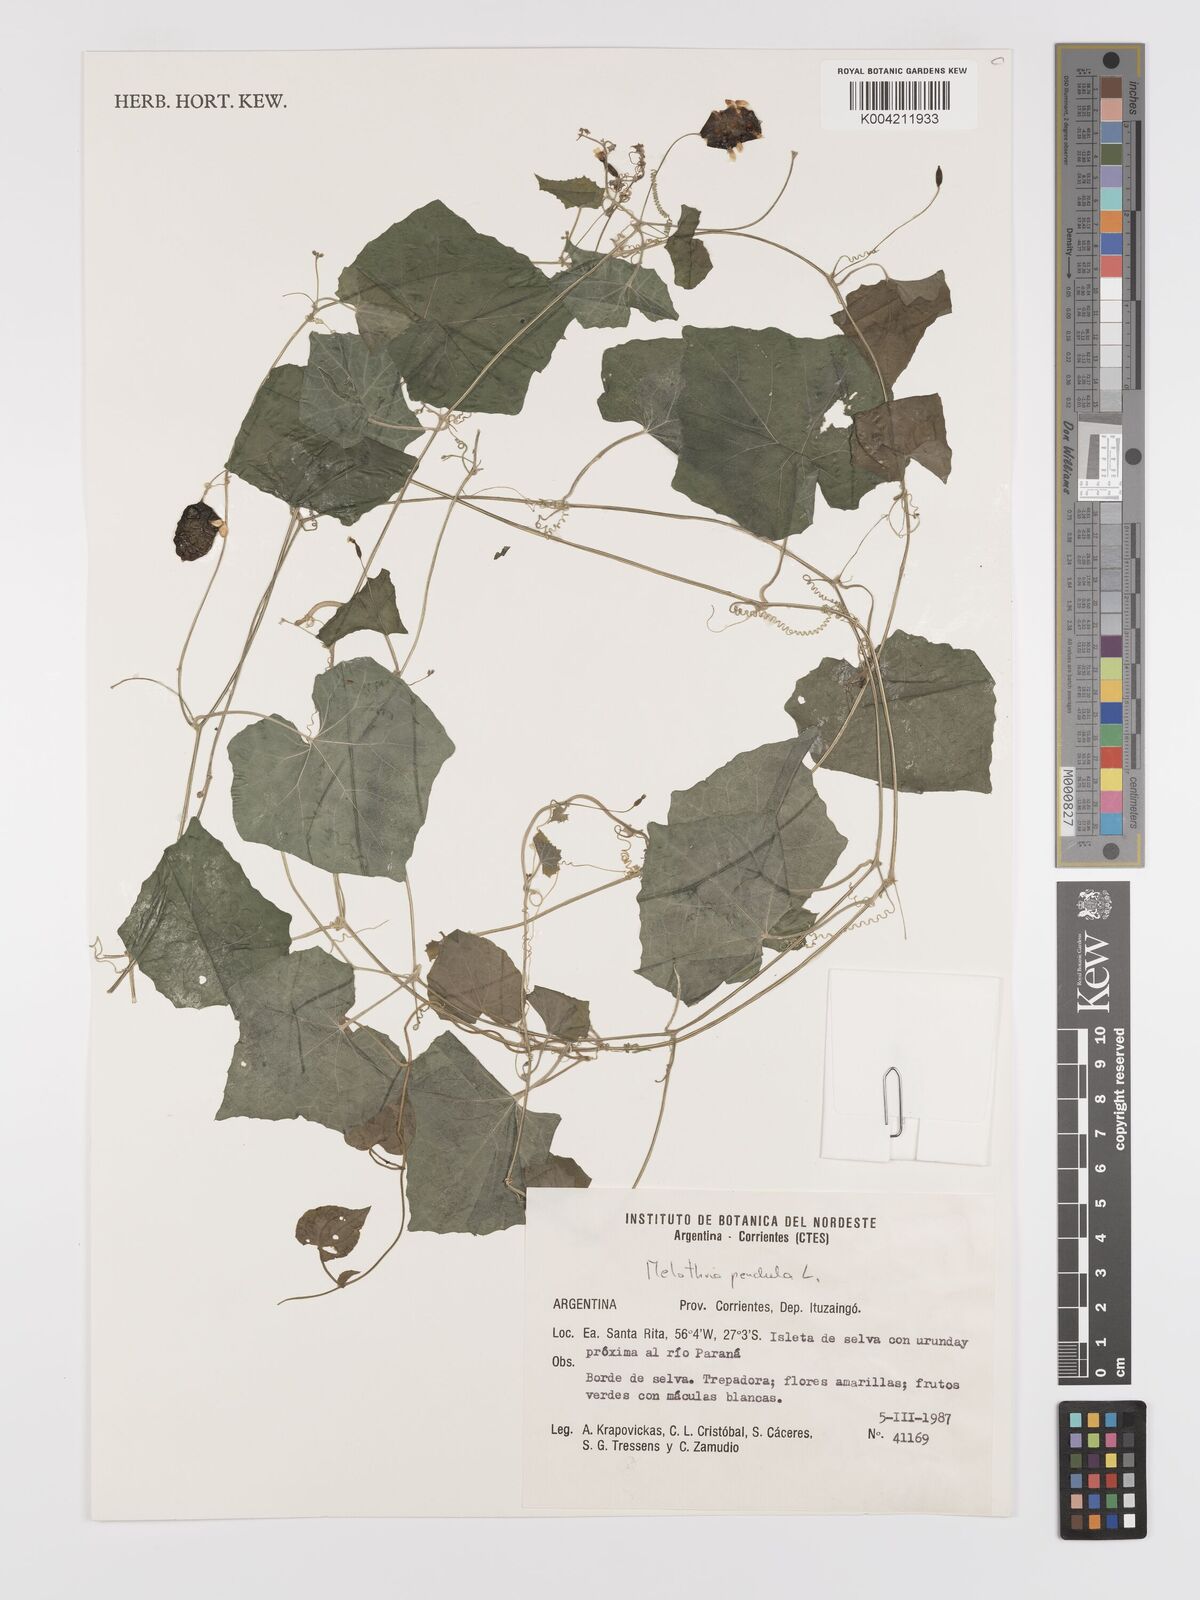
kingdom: Plantae
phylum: Tracheophyta
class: Magnoliopsida
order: Cucurbitales
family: Cucurbitaceae
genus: Melothria
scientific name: Melothria pendula
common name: Creeping-cucumber
